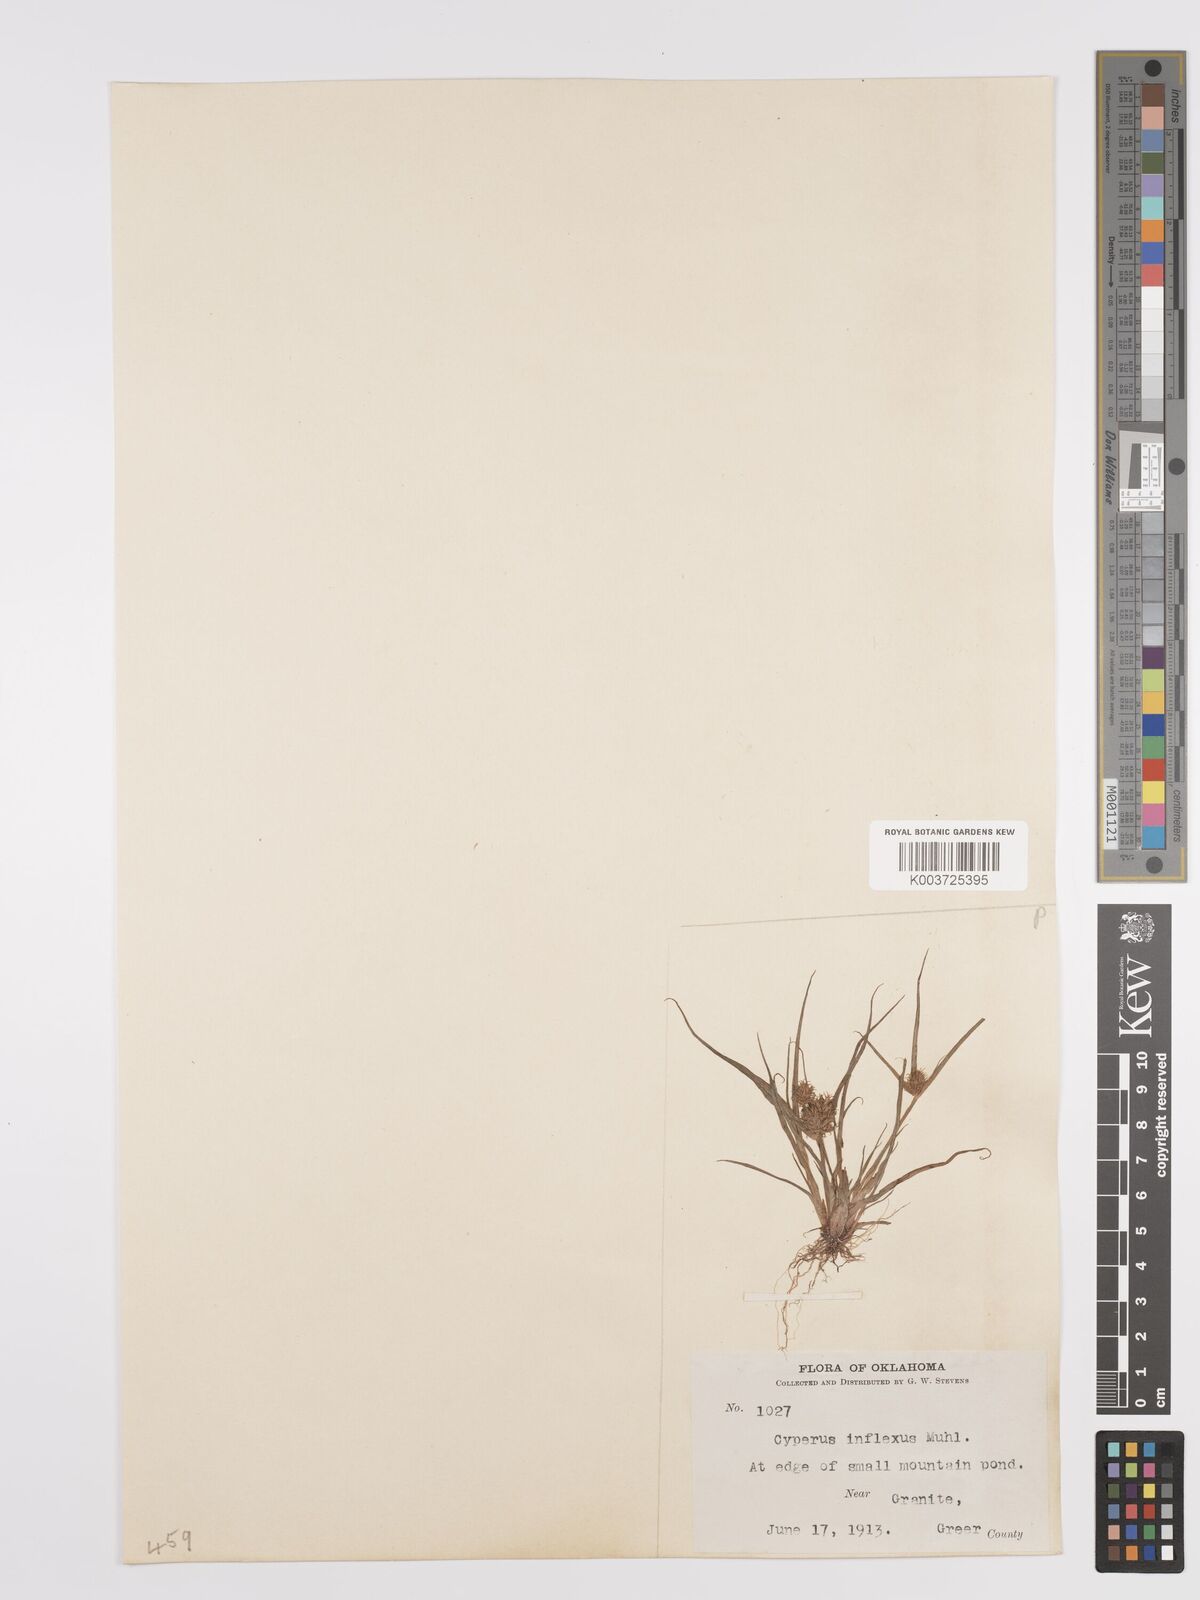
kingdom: Plantae
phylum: Tracheophyta
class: Liliopsida
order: Poales
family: Cyperaceae
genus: Cyperus
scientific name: Cyperus squarrosus
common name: Awned cyperus
